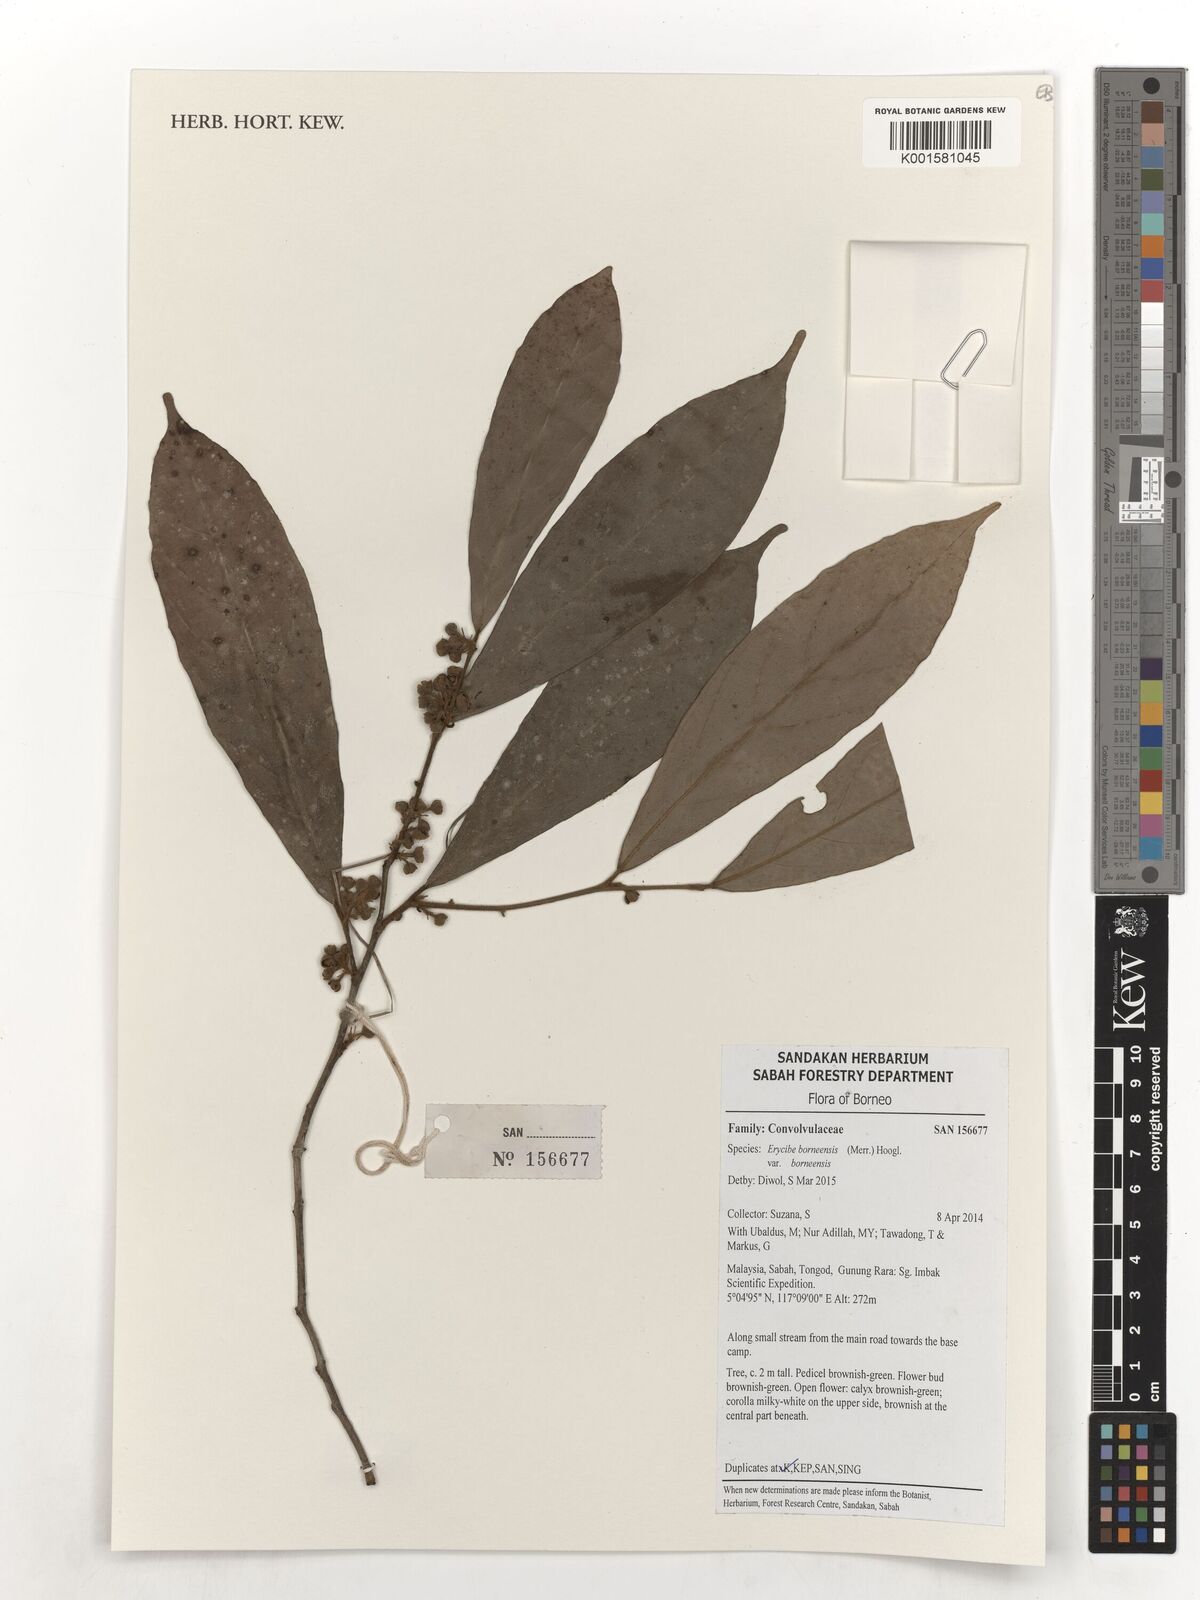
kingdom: Plantae
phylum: Tracheophyta
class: Magnoliopsida
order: Solanales
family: Convolvulaceae
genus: Erycibe
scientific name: Erycibe borneensis
